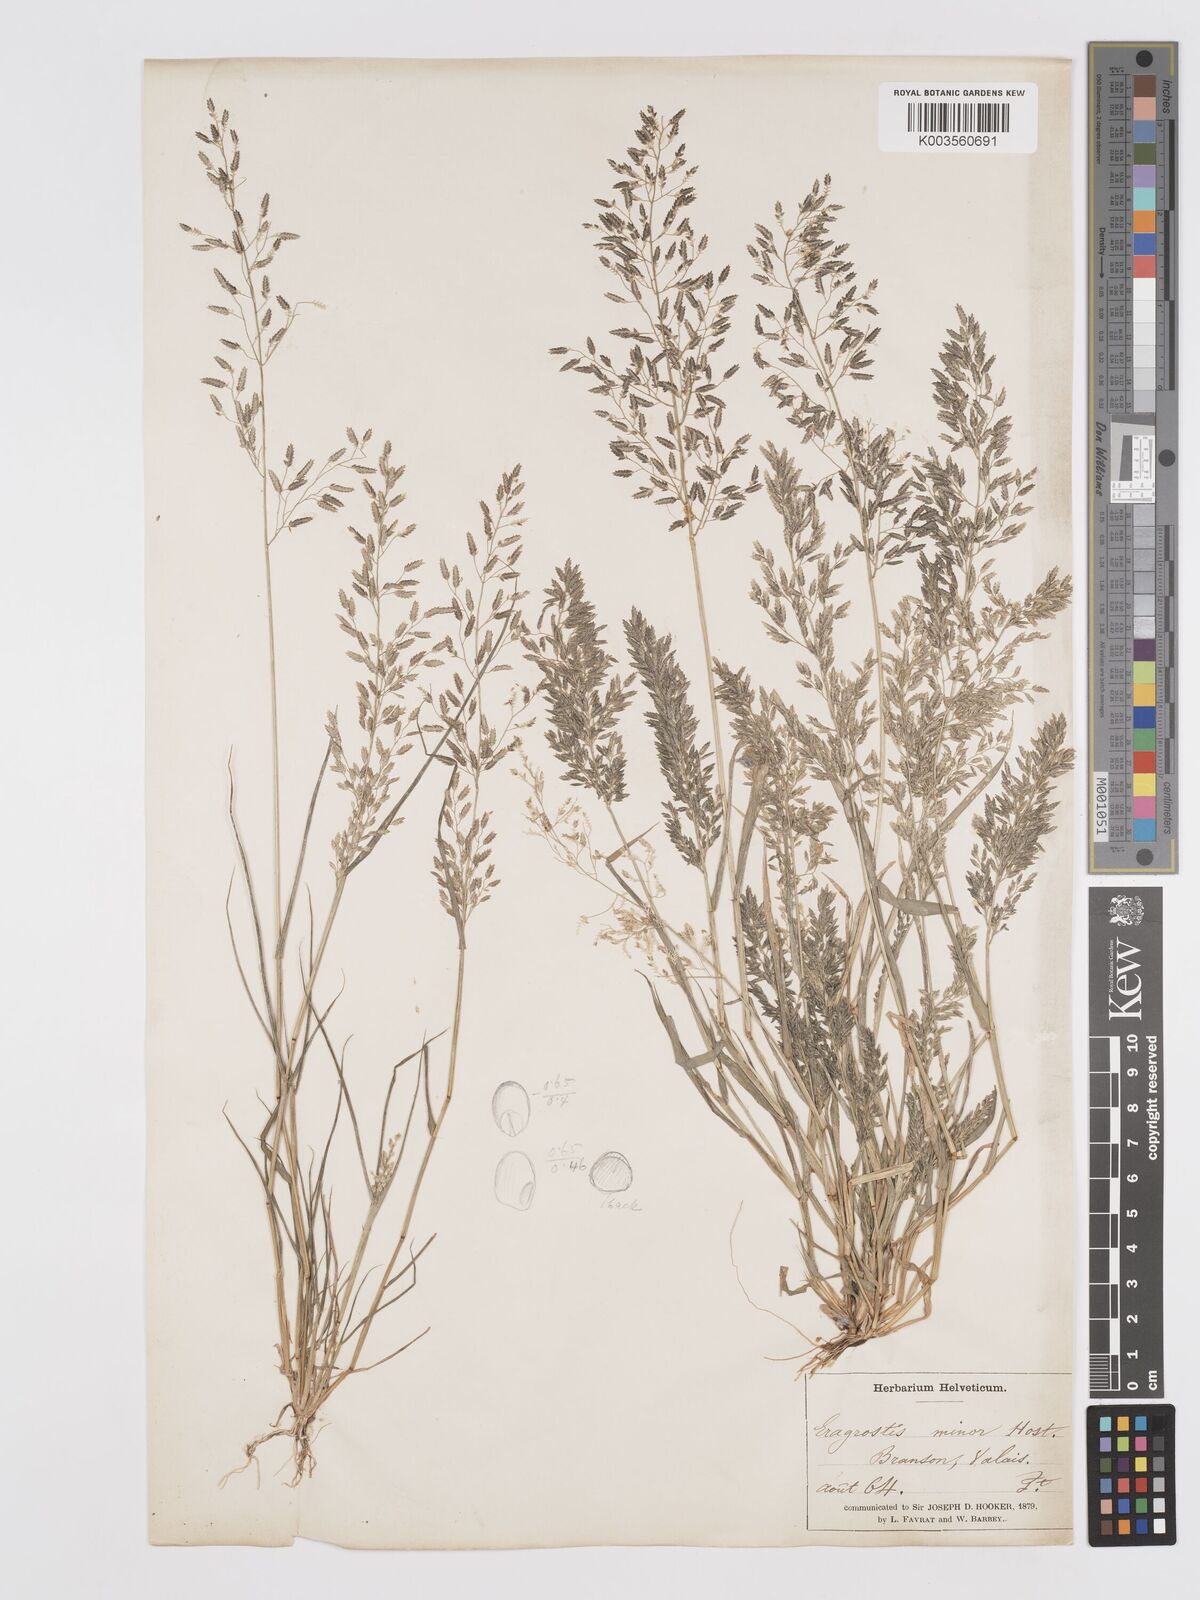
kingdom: Plantae
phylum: Tracheophyta
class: Liliopsida
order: Poales
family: Poaceae
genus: Eragrostis
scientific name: Eragrostis minor
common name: Small love-grass
